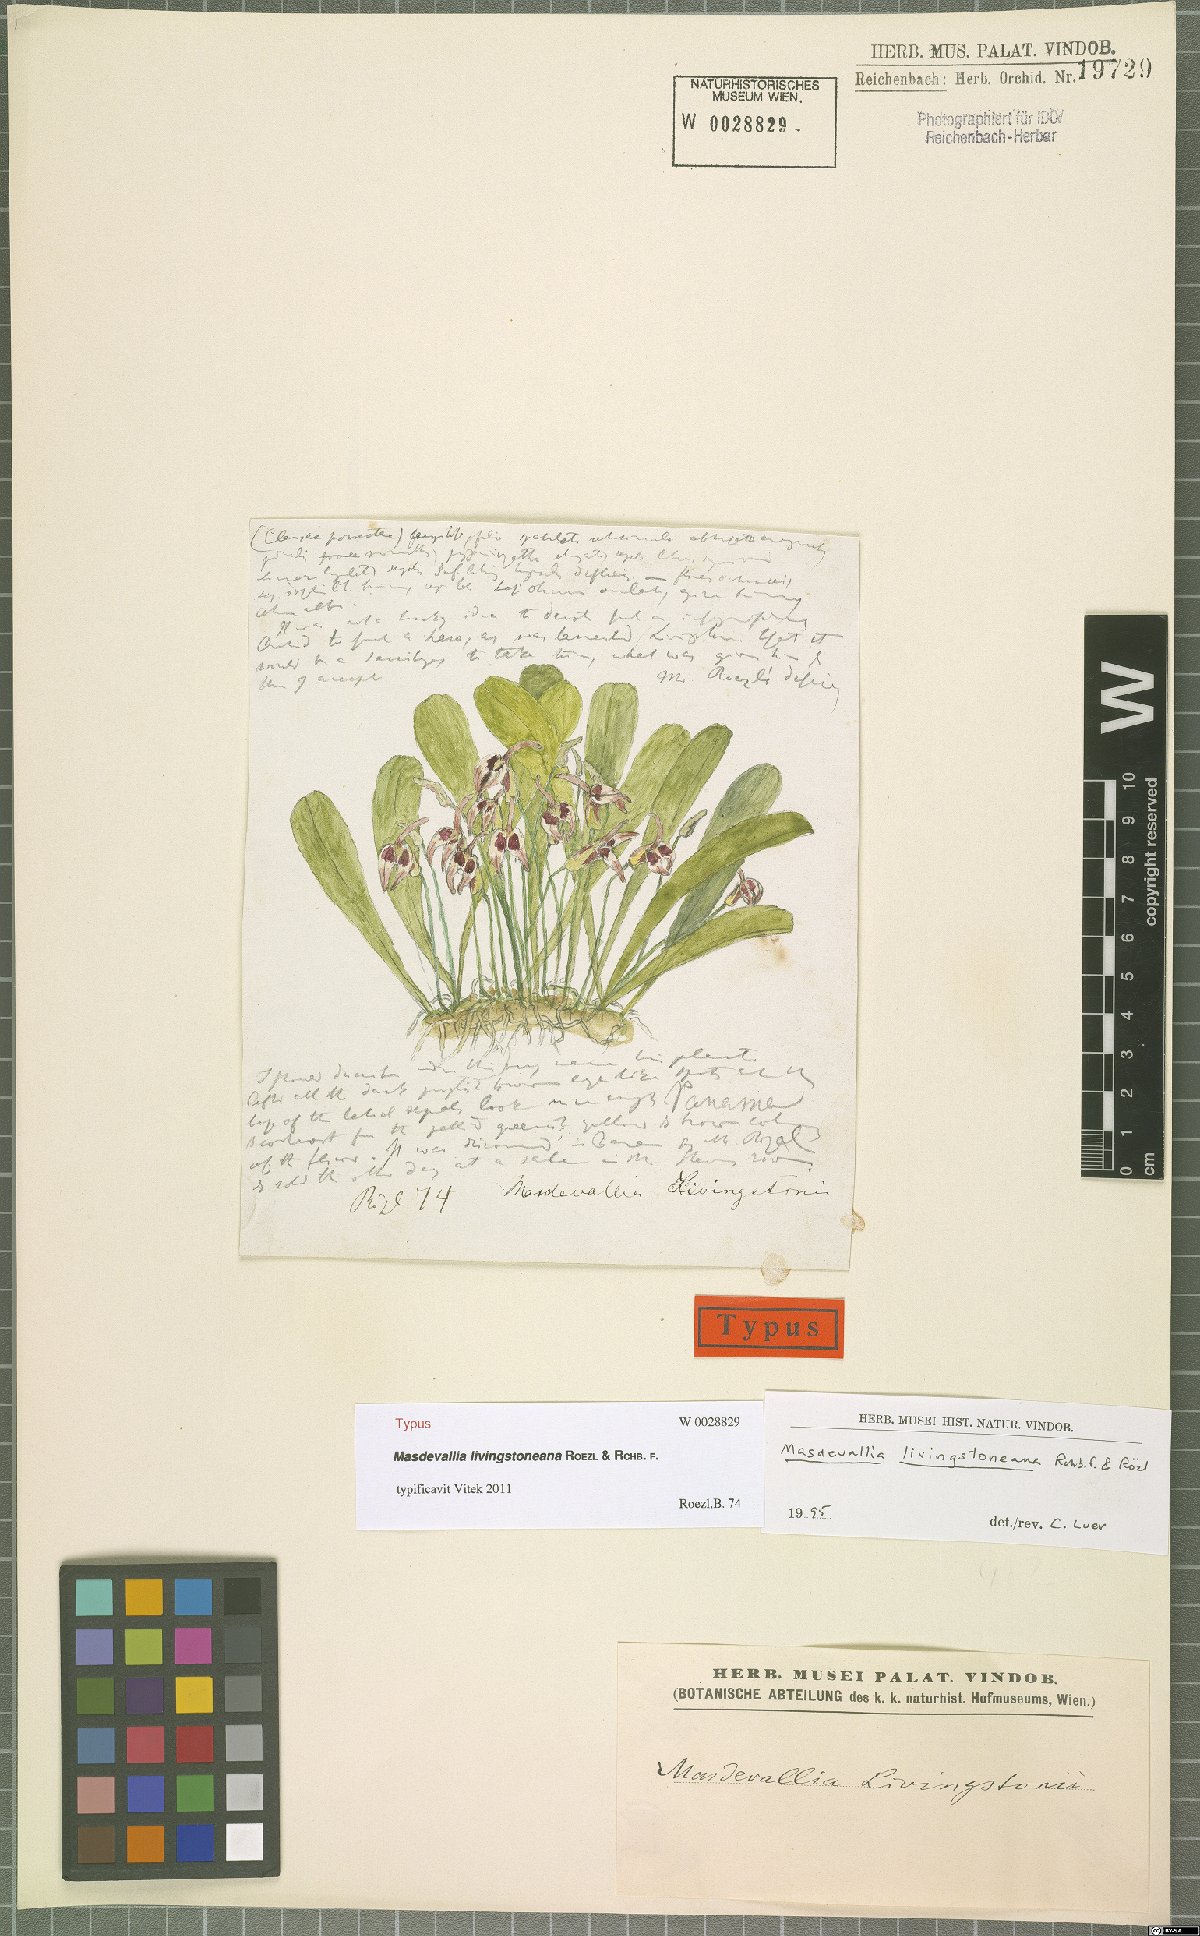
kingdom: Plantae
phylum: Tracheophyta
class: Liliopsida
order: Asparagales
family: Orchidaceae
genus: Masdevallia
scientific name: Masdevallia livingstoneana
